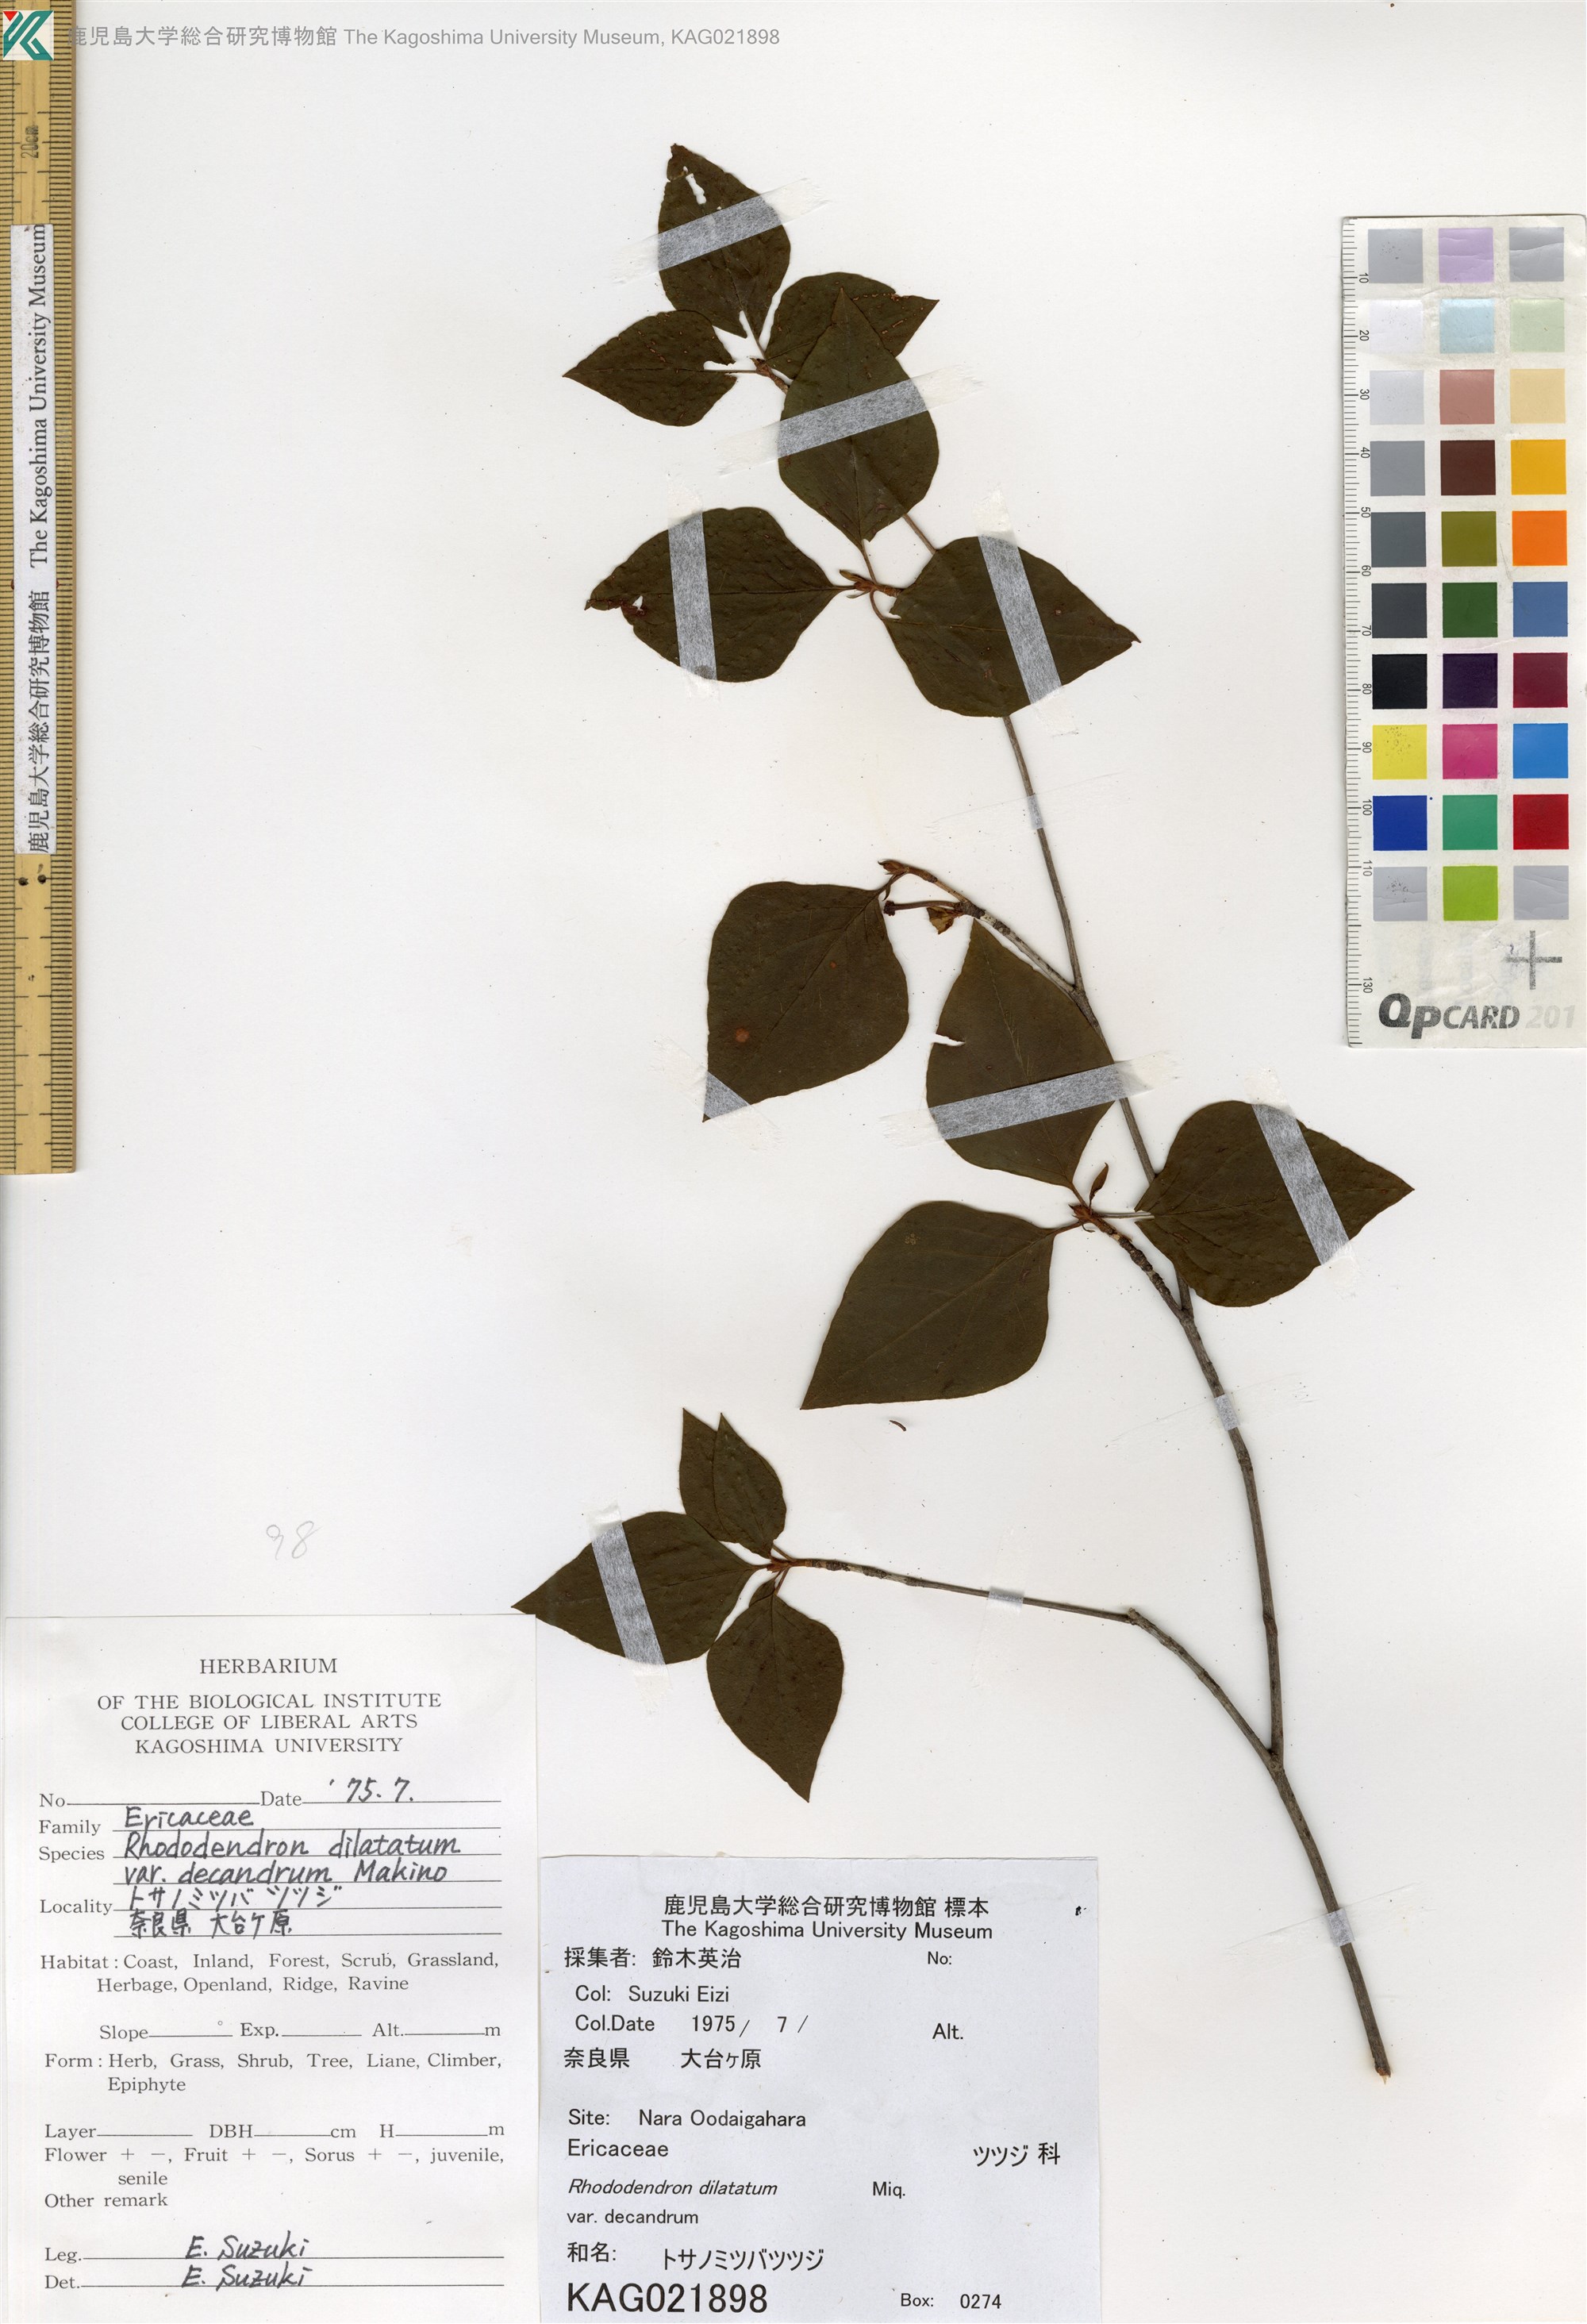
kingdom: Plantae
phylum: Tracheophyta
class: Magnoliopsida
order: Ericales
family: Ericaceae
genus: Rhododendron
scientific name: Rhododendron dilatatum
